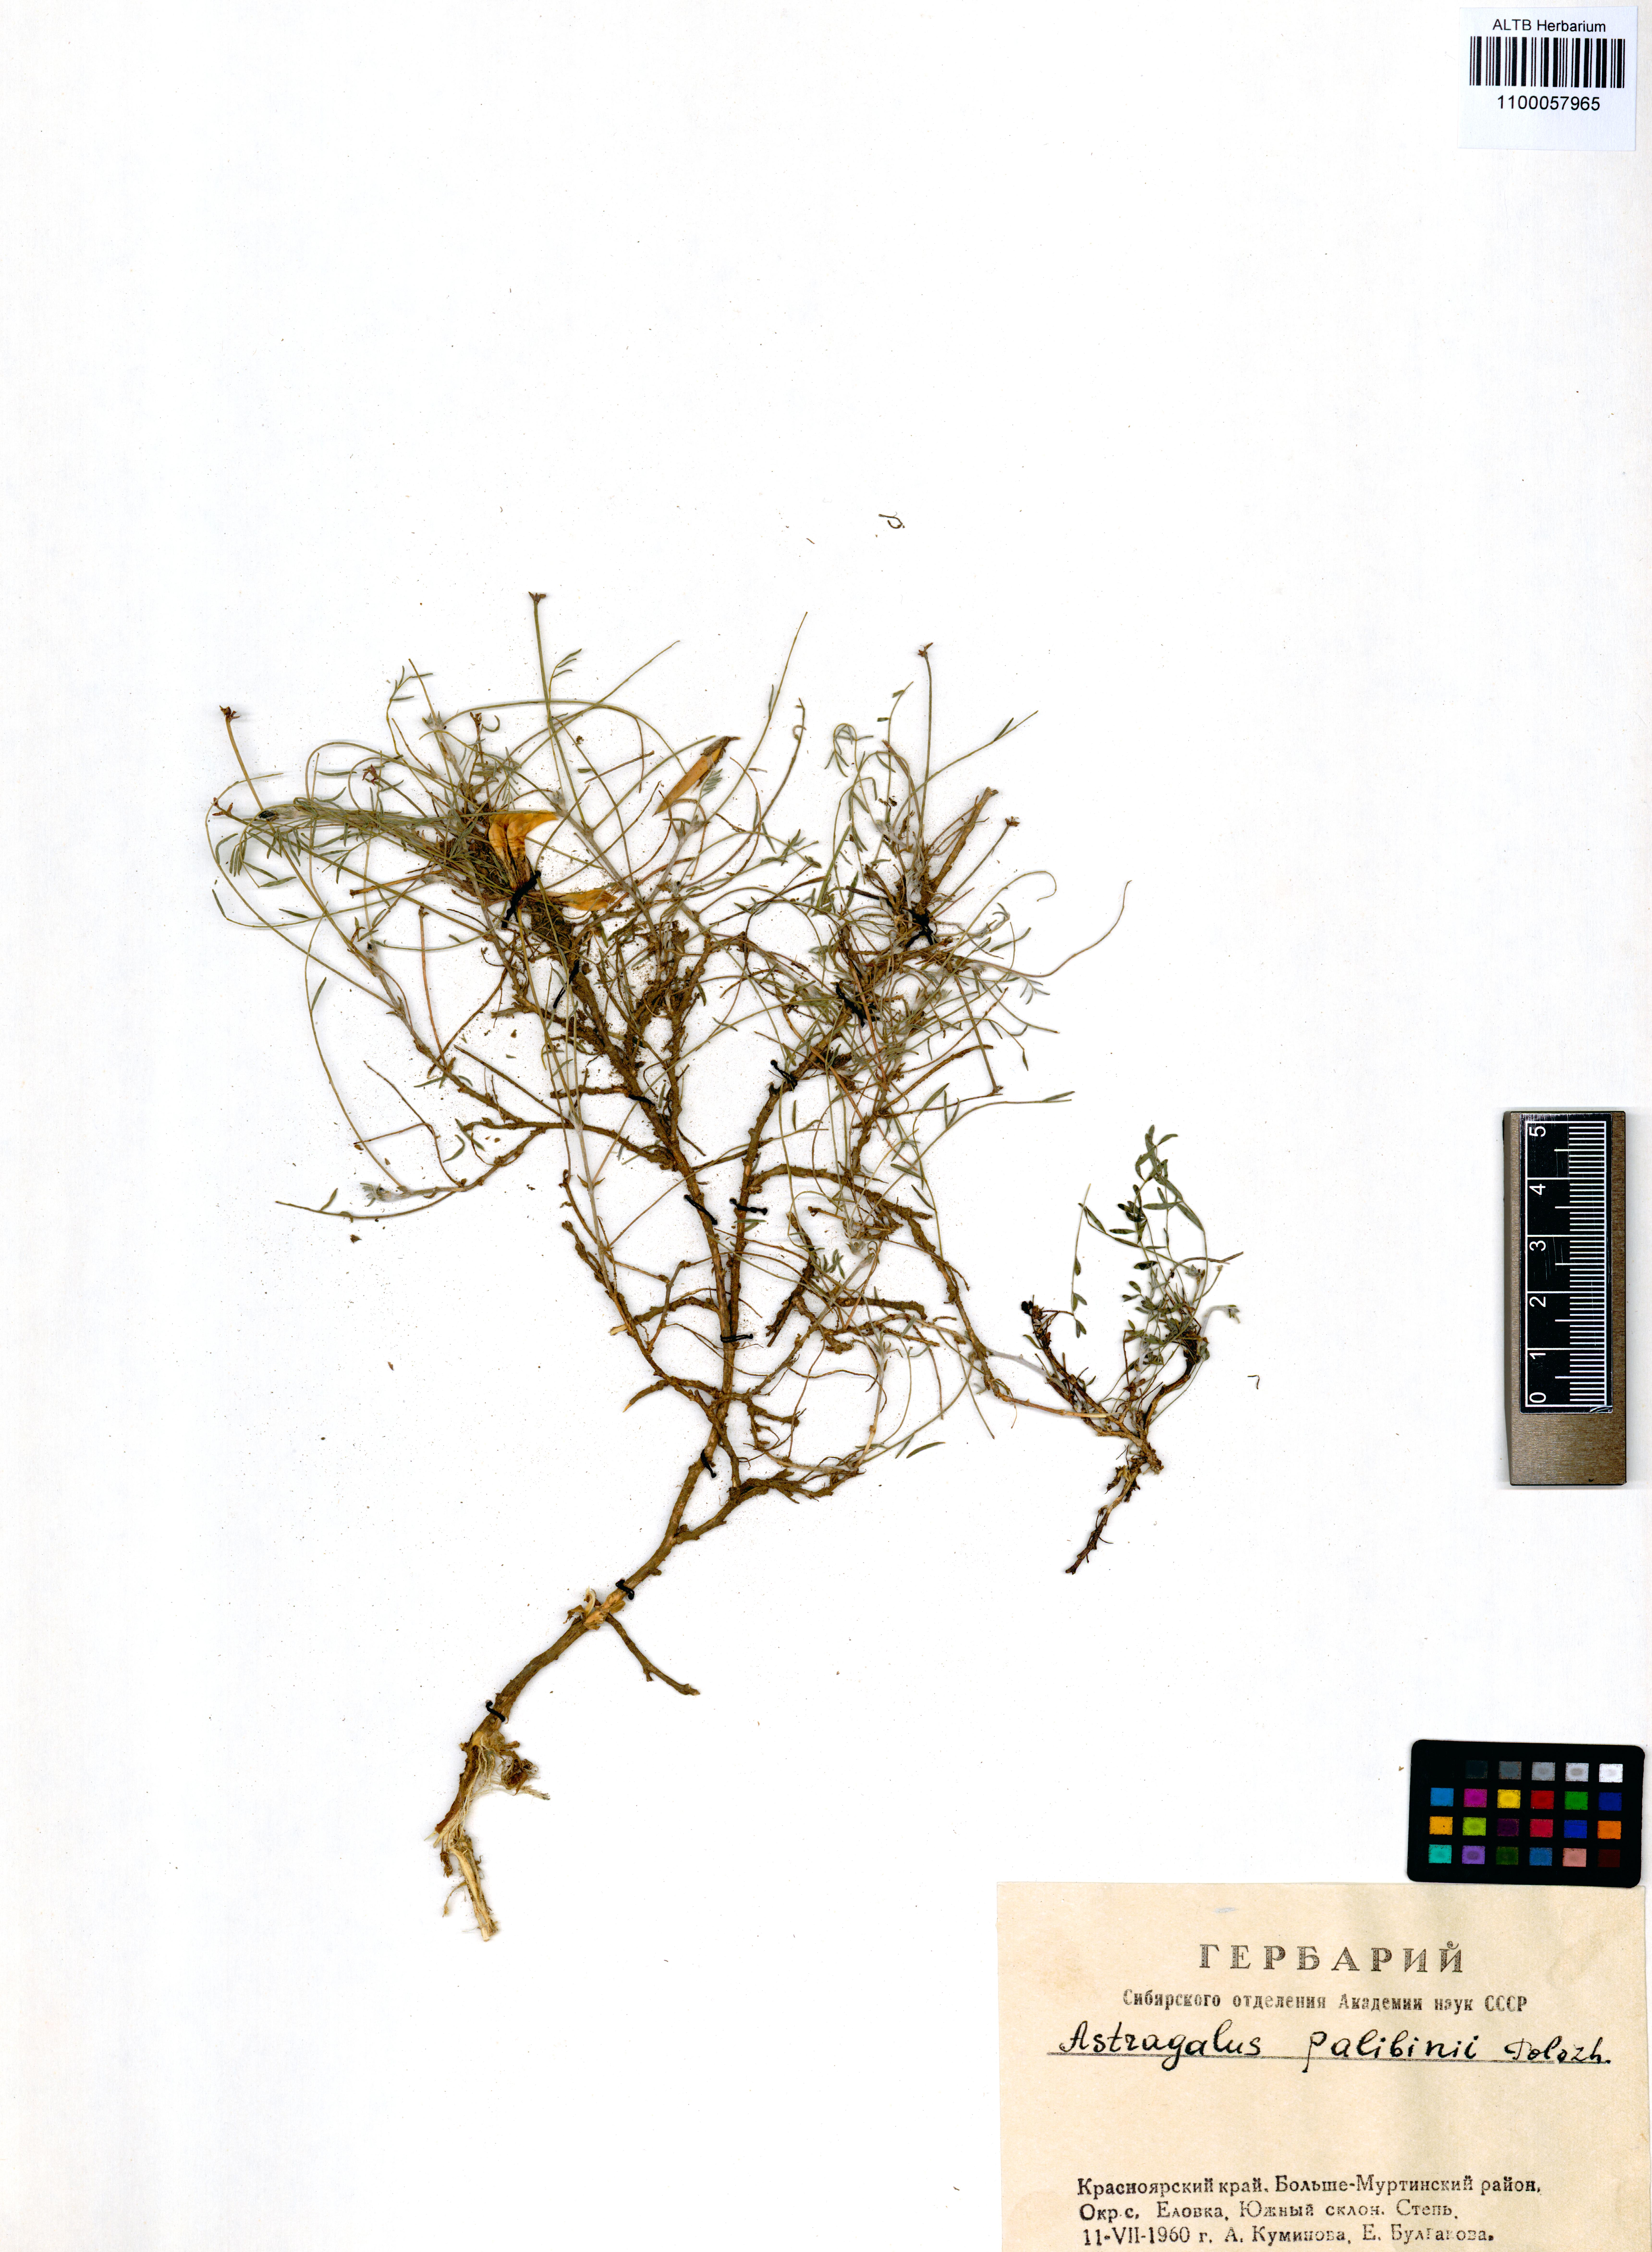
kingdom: Plantae
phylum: Tracheophyta
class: Magnoliopsida
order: Fabales
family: Fabaceae
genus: Astragalus
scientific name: Astragalus palibinii
